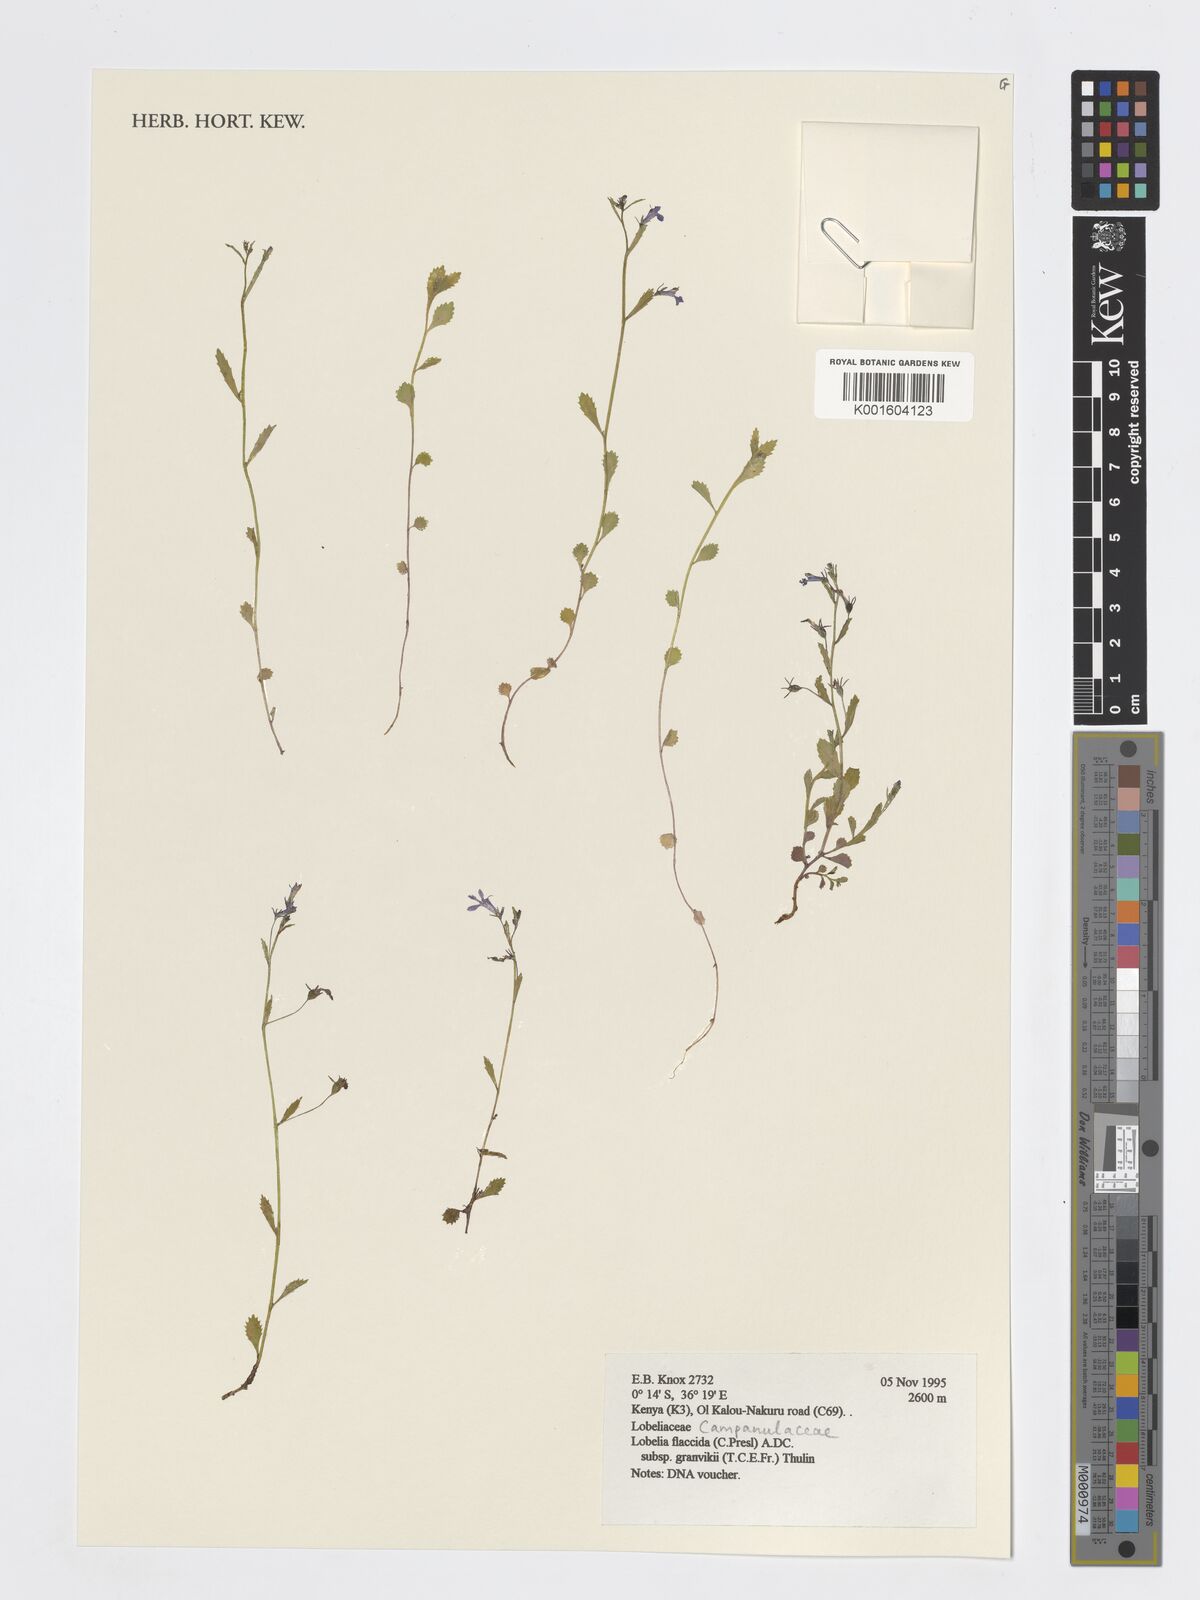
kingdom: Plantae
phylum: Tracheophyta
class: Magnoliopsida
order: Asterales
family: Campanulaceae
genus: Lobelia
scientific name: Lobelia flaccida
